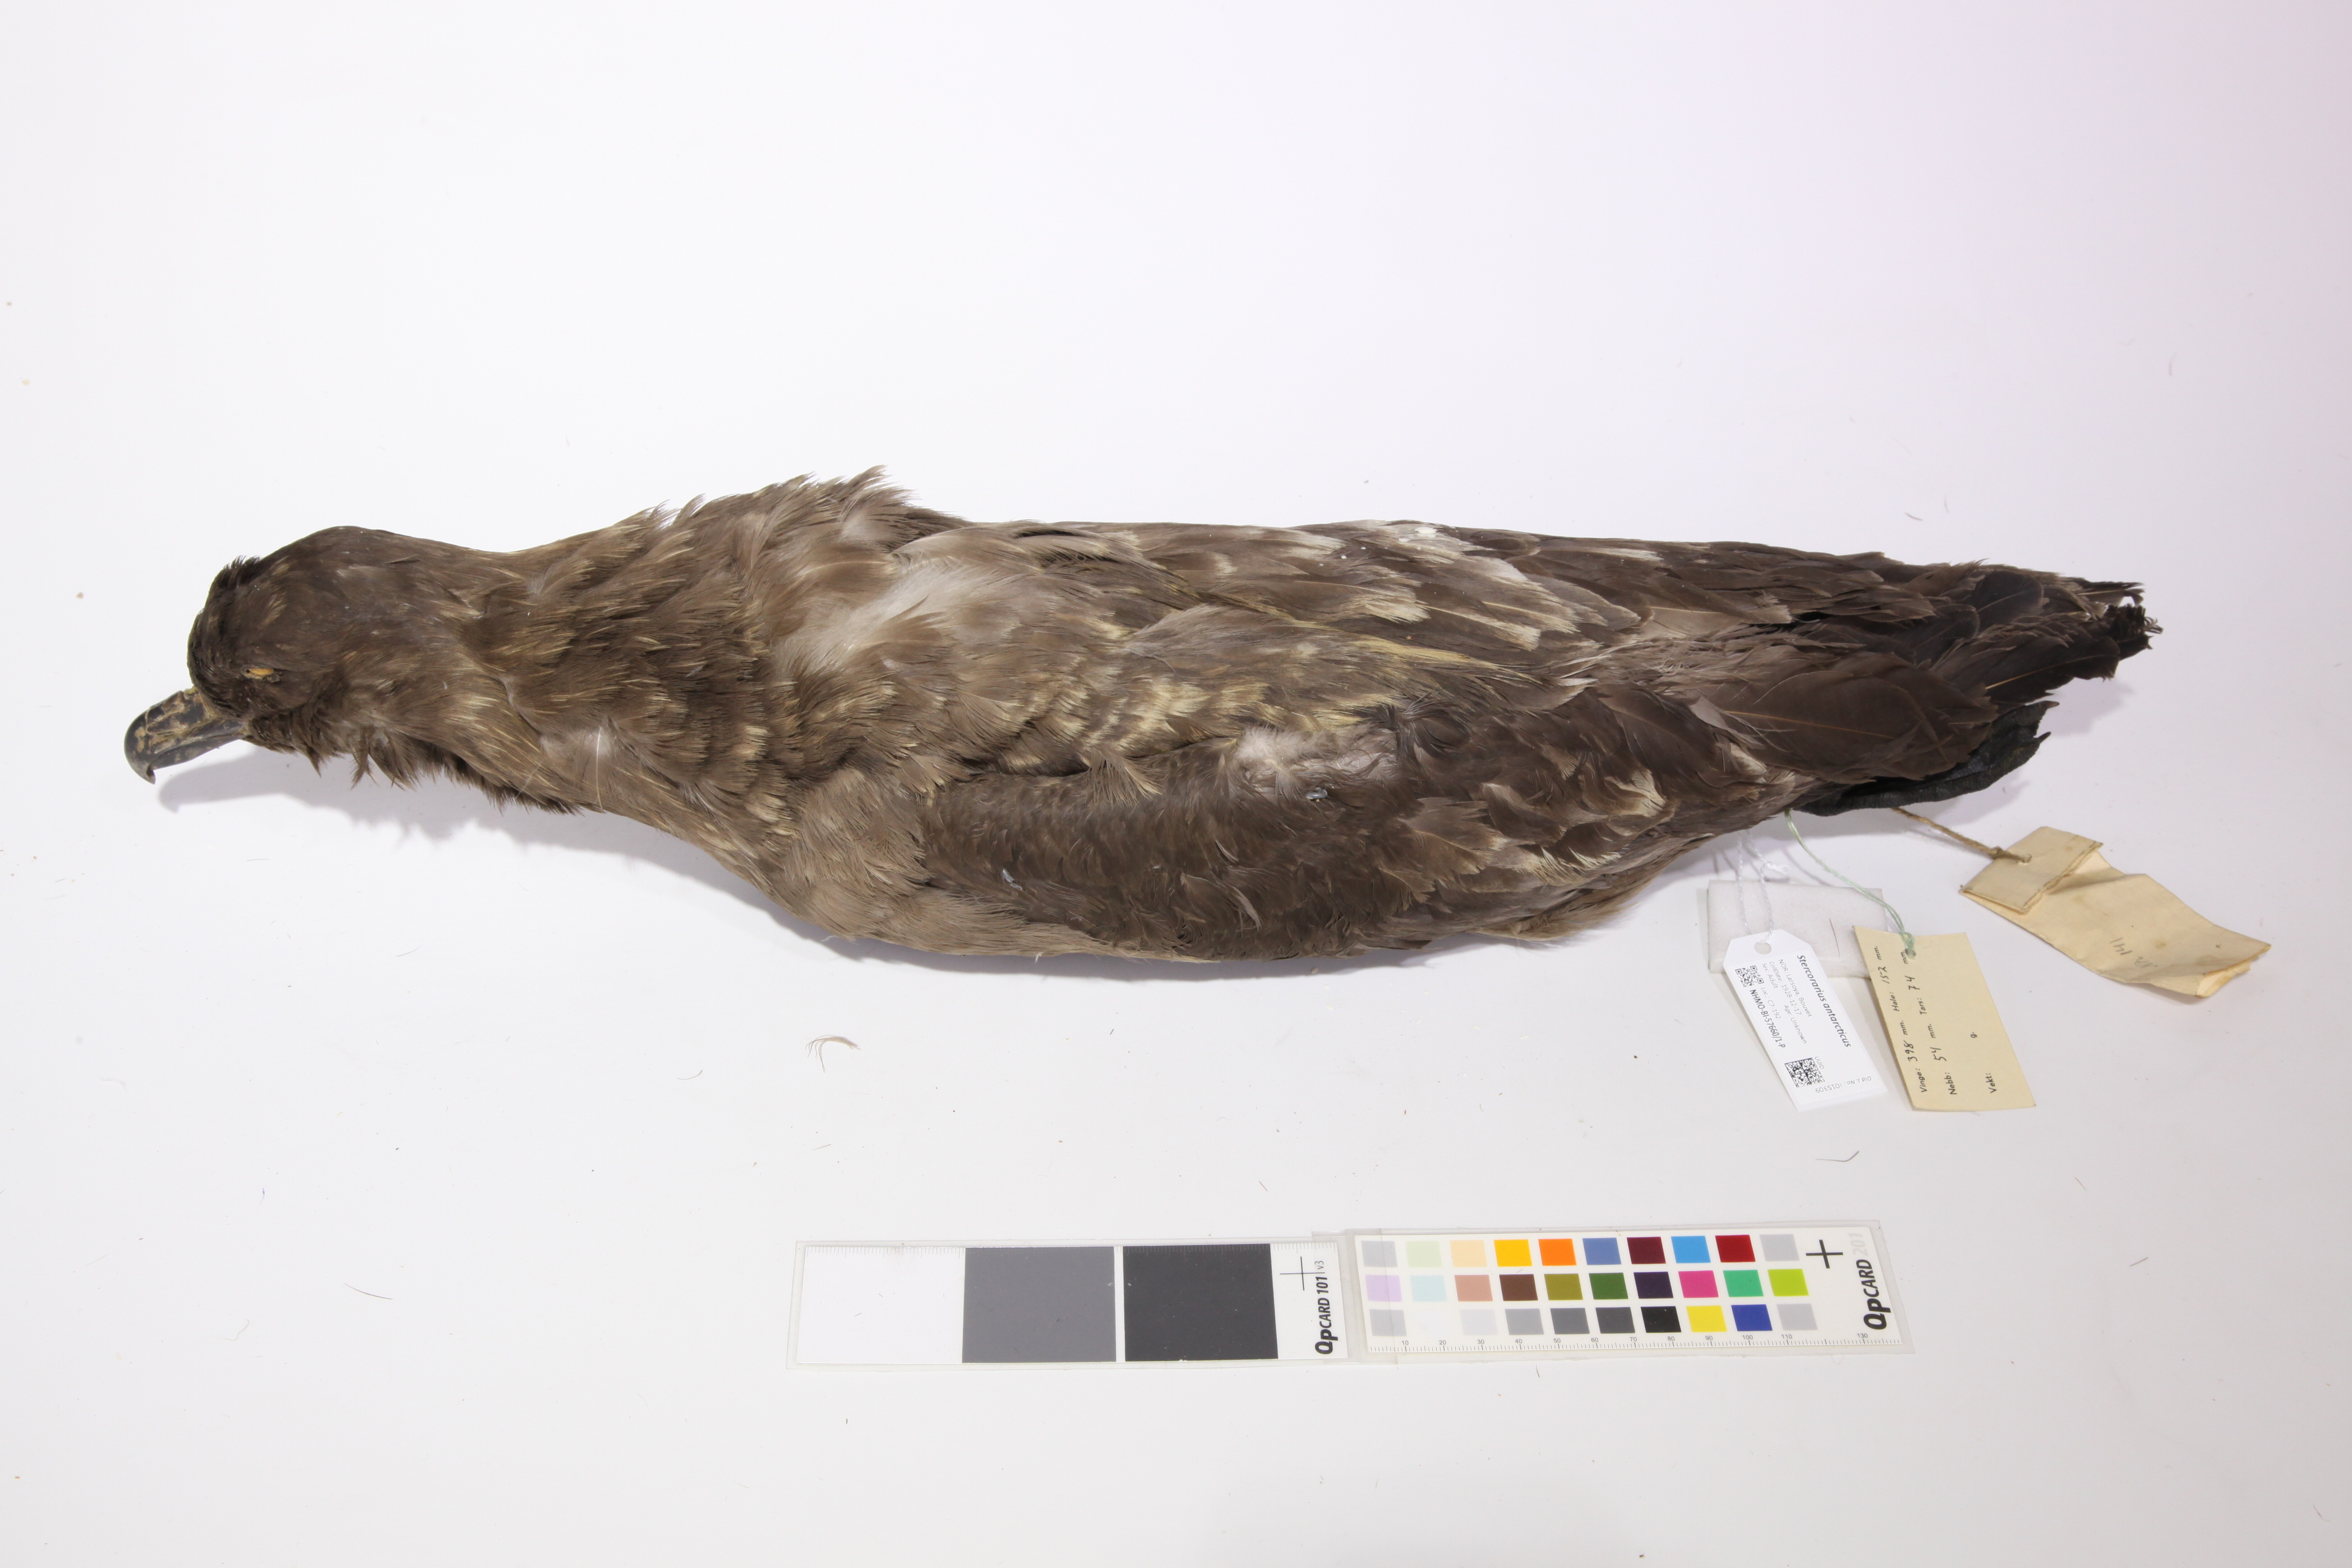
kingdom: Animalia
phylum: Chordata
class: Aves
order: Charadriiformes
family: Stercorariidae
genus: Stercorarius
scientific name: Stercorarius antarcticus
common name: Brown skua
